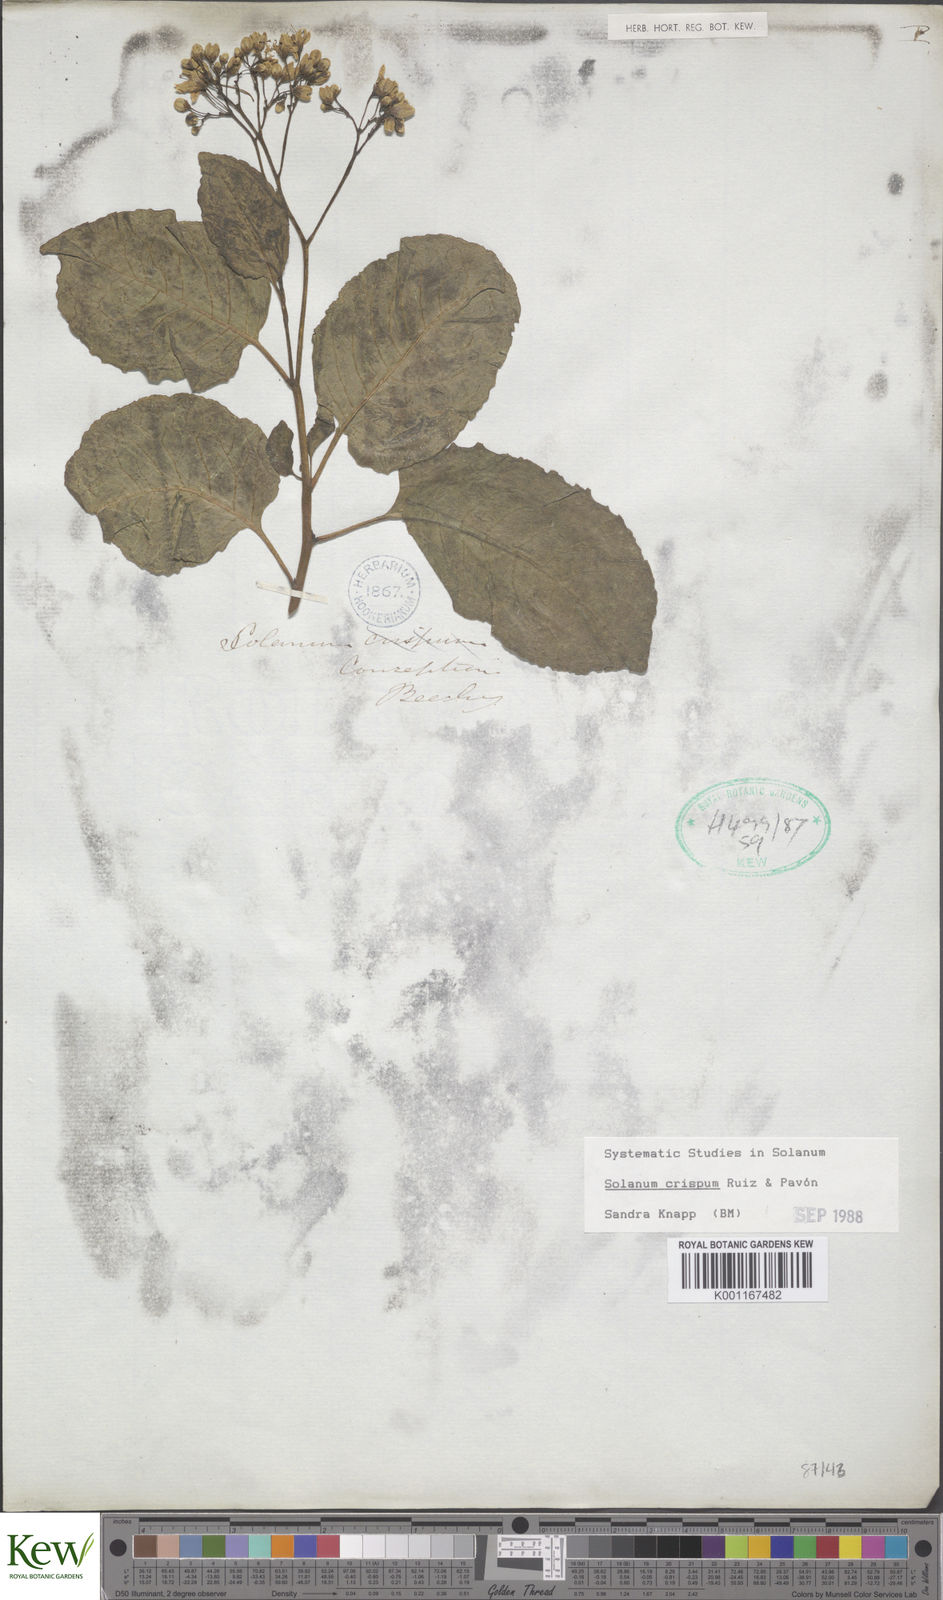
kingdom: Plantae
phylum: Tracheophyta
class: Magnoliopsida
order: Solanales
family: Solanaceae
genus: Solanum
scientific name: Solanum crispum
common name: Chilean nightshade
